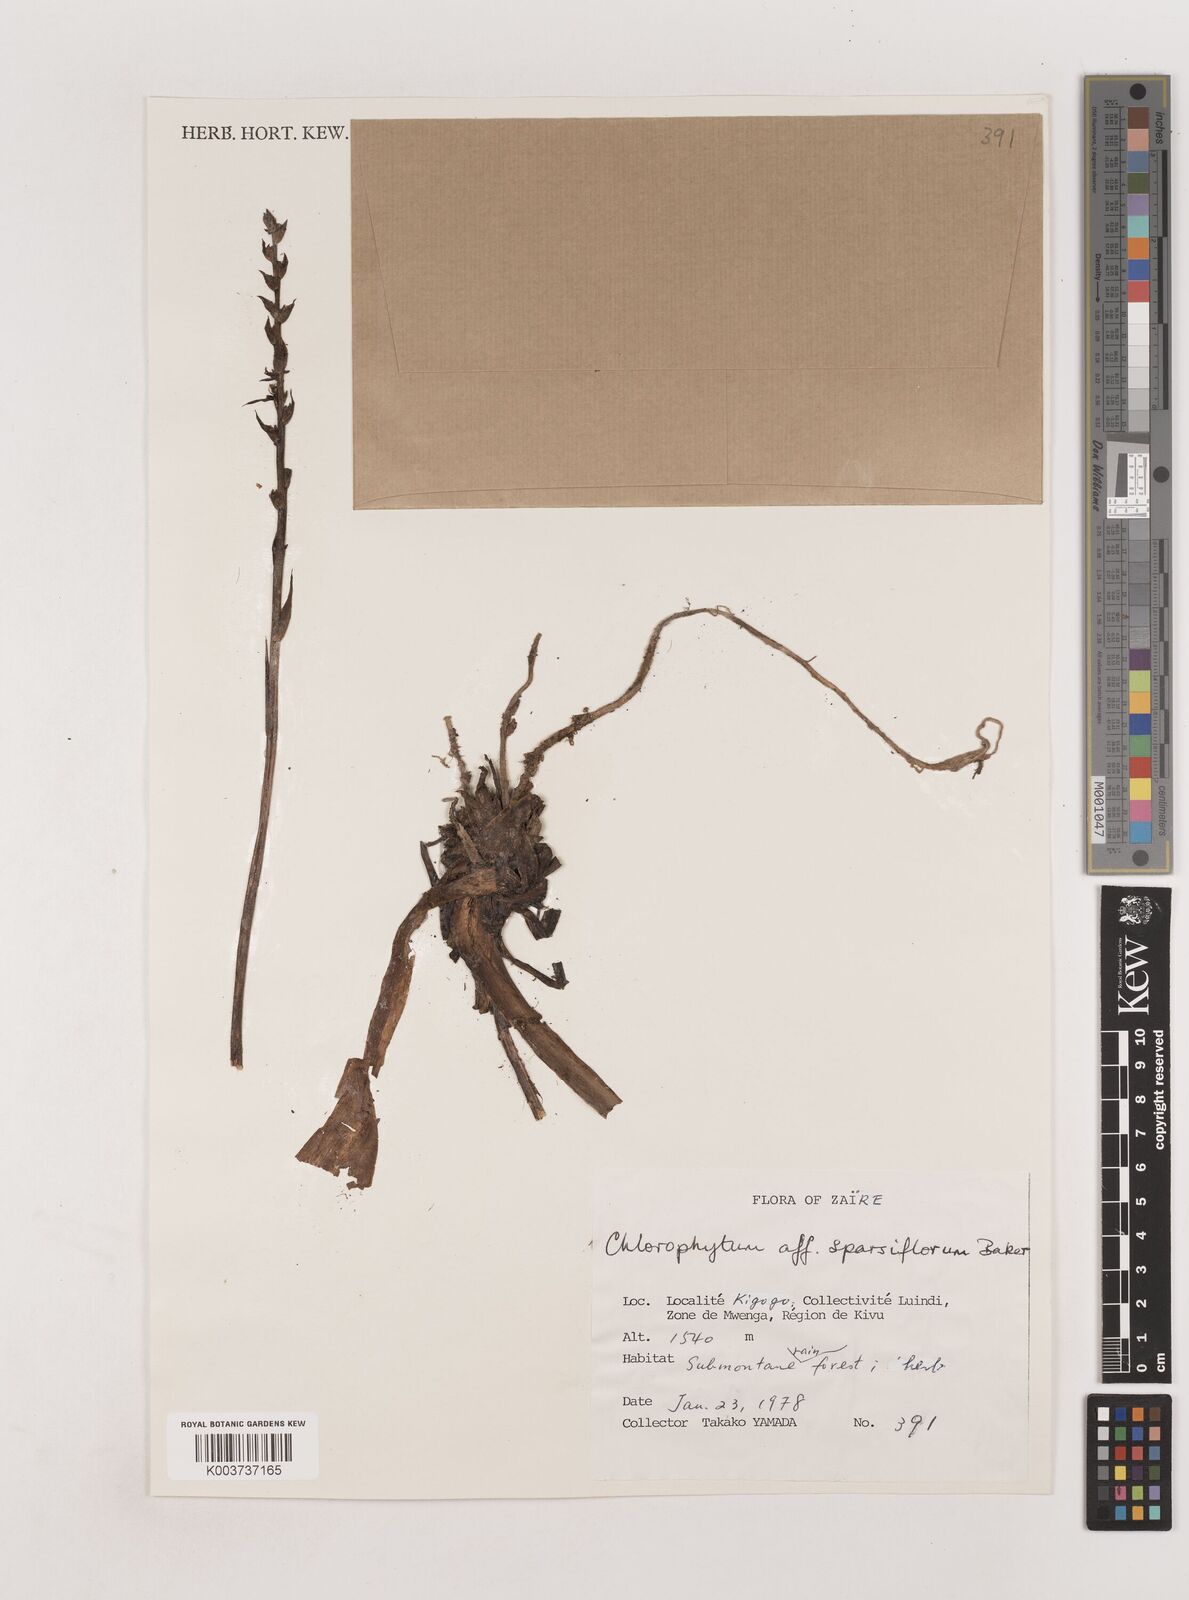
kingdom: Plantae
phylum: Tracheophyta
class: Liliopsida
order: Asparagales
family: Asparagaceae
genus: Chlorophytum
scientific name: Chlorophytum sparsiflorum
